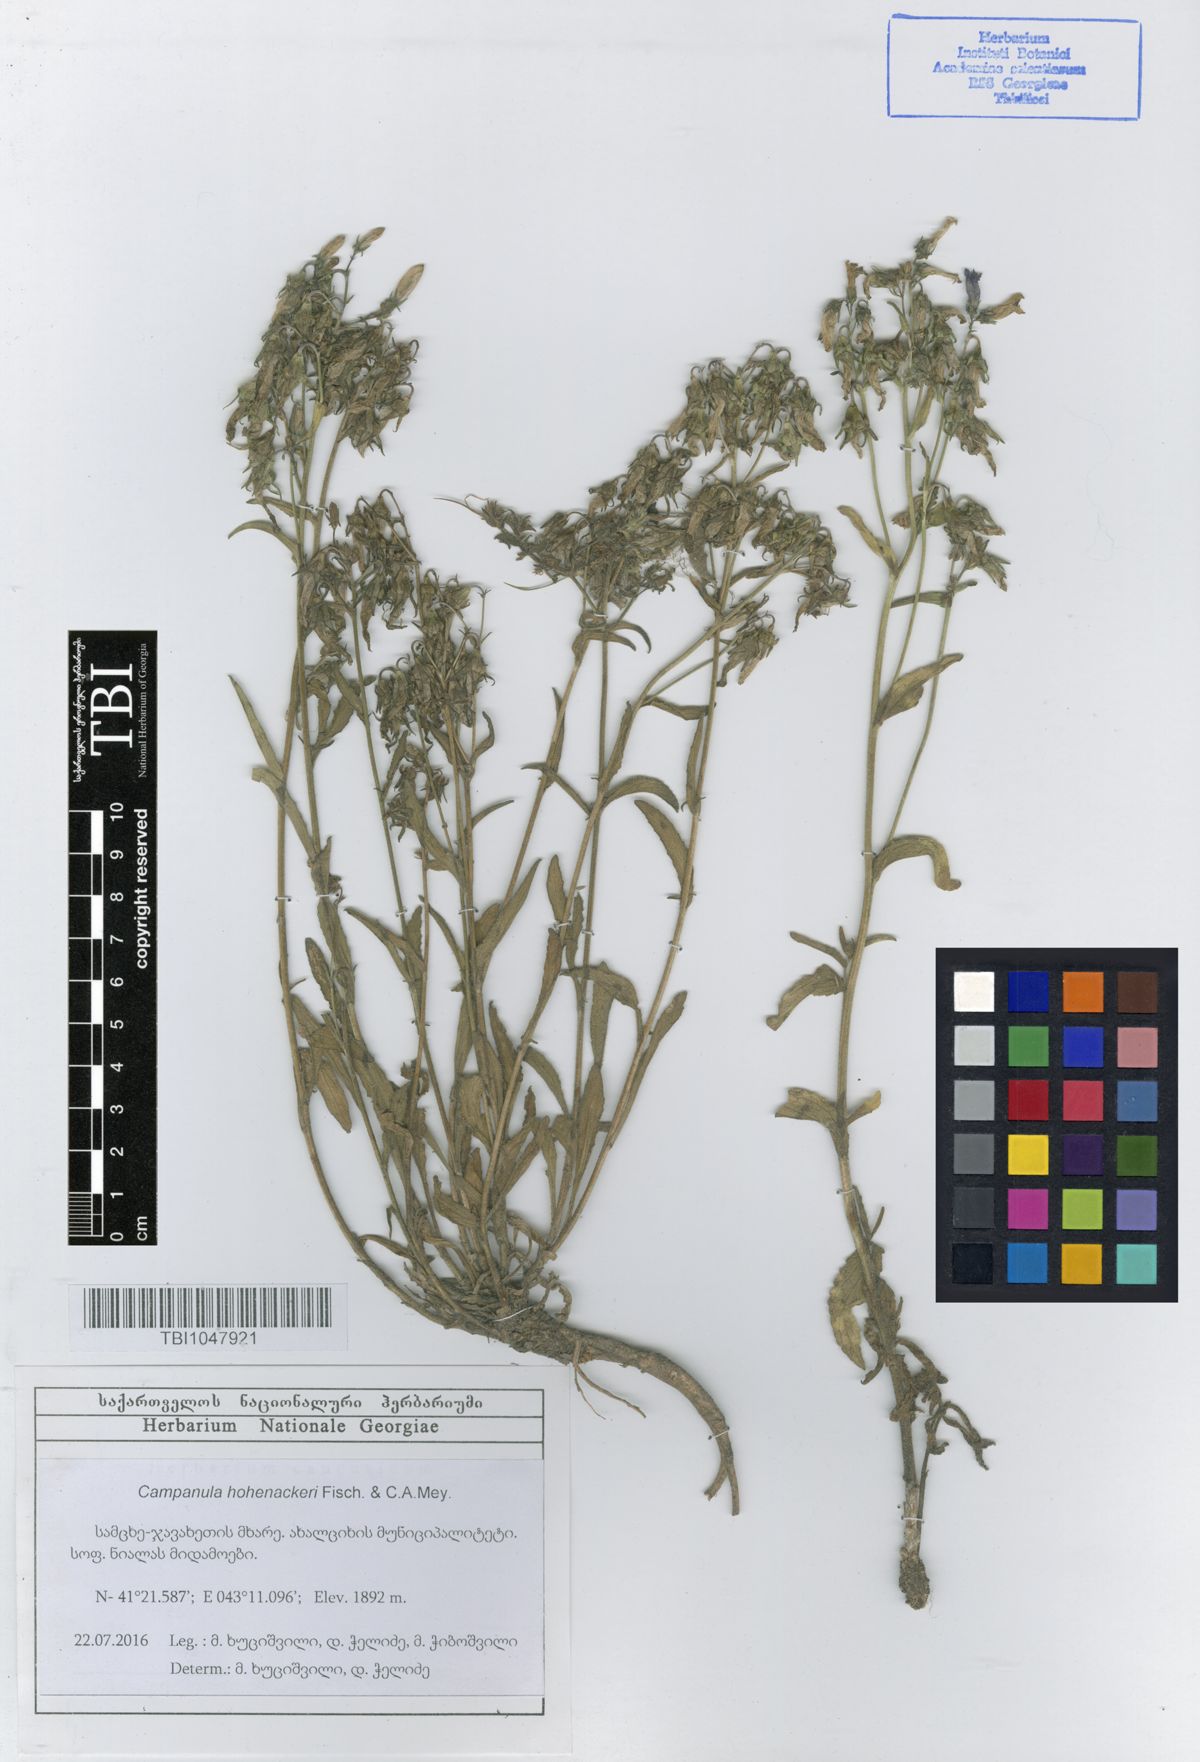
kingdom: Plantae
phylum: Tracheophyta
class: Magnoliopsida
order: Asterales
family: Campanulaceae
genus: Campanula
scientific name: Campanula sibirica
